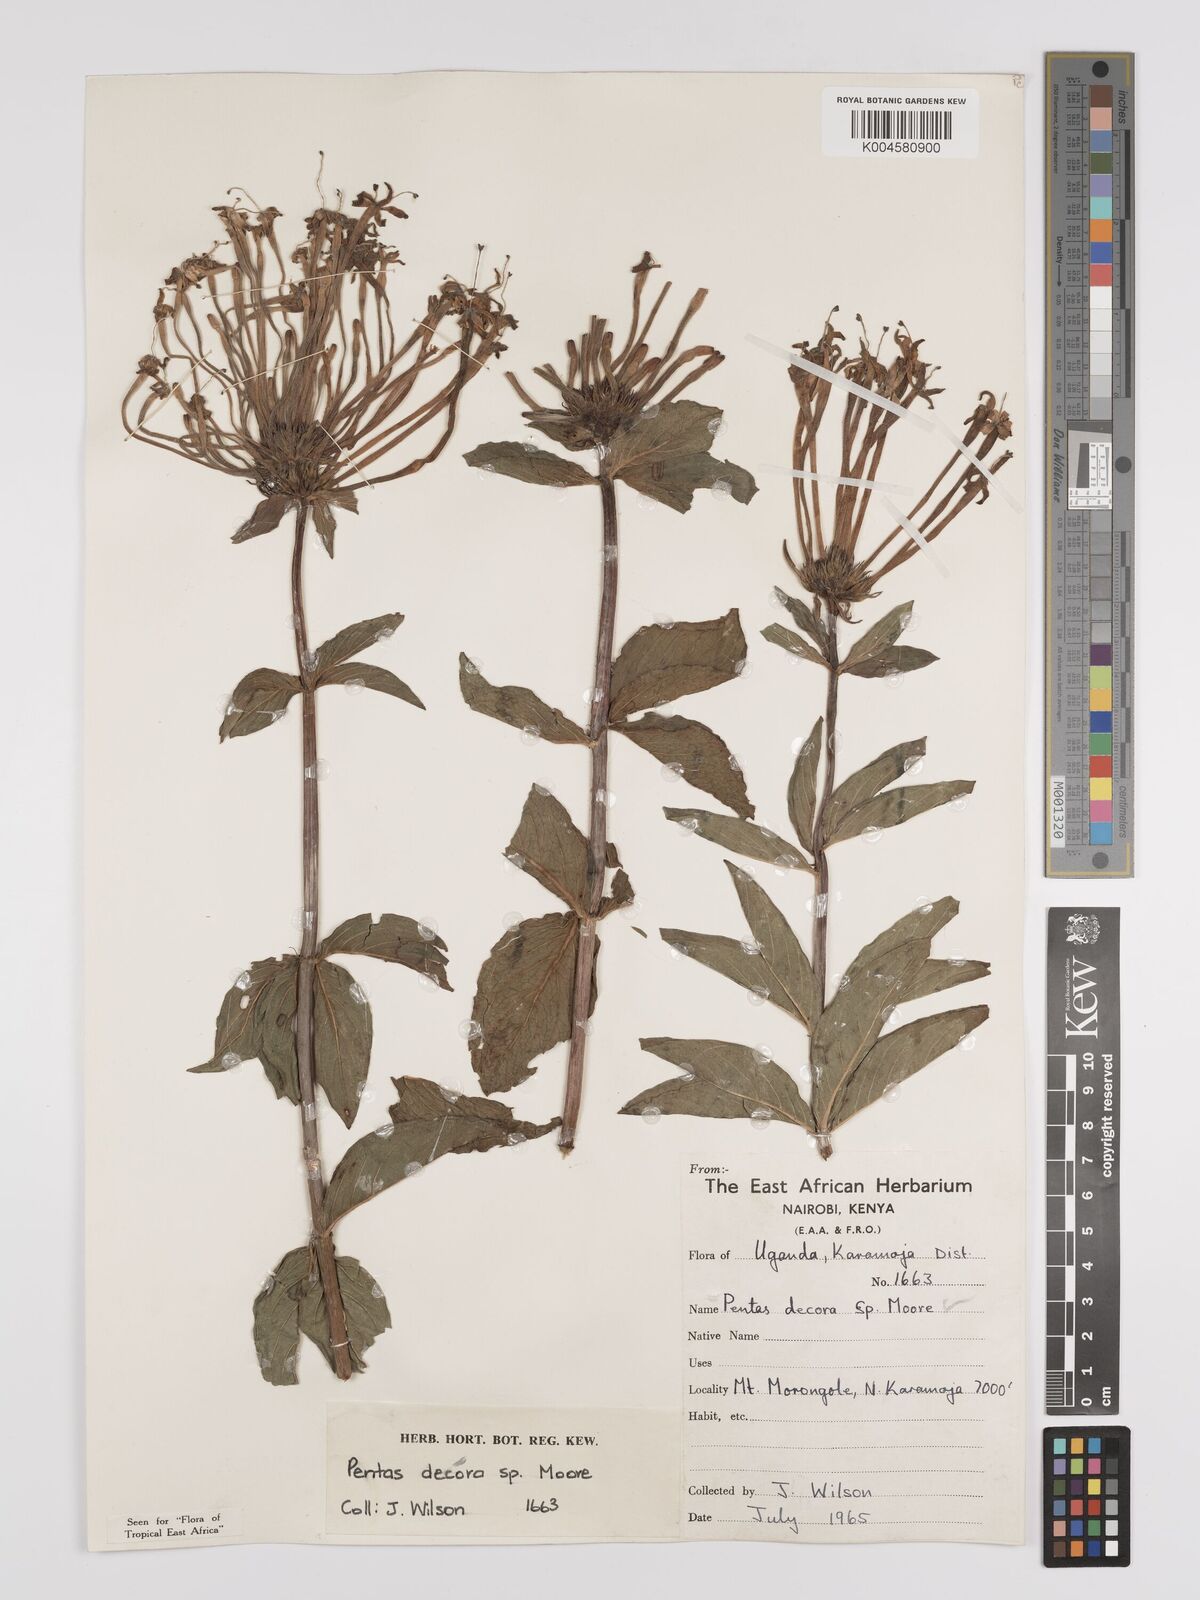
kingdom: Plantae
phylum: Tracheophyta
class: Magnoliopsida
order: Gentianales
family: Rubiaceae
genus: Dolichopentas
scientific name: Dolichopentas decora
